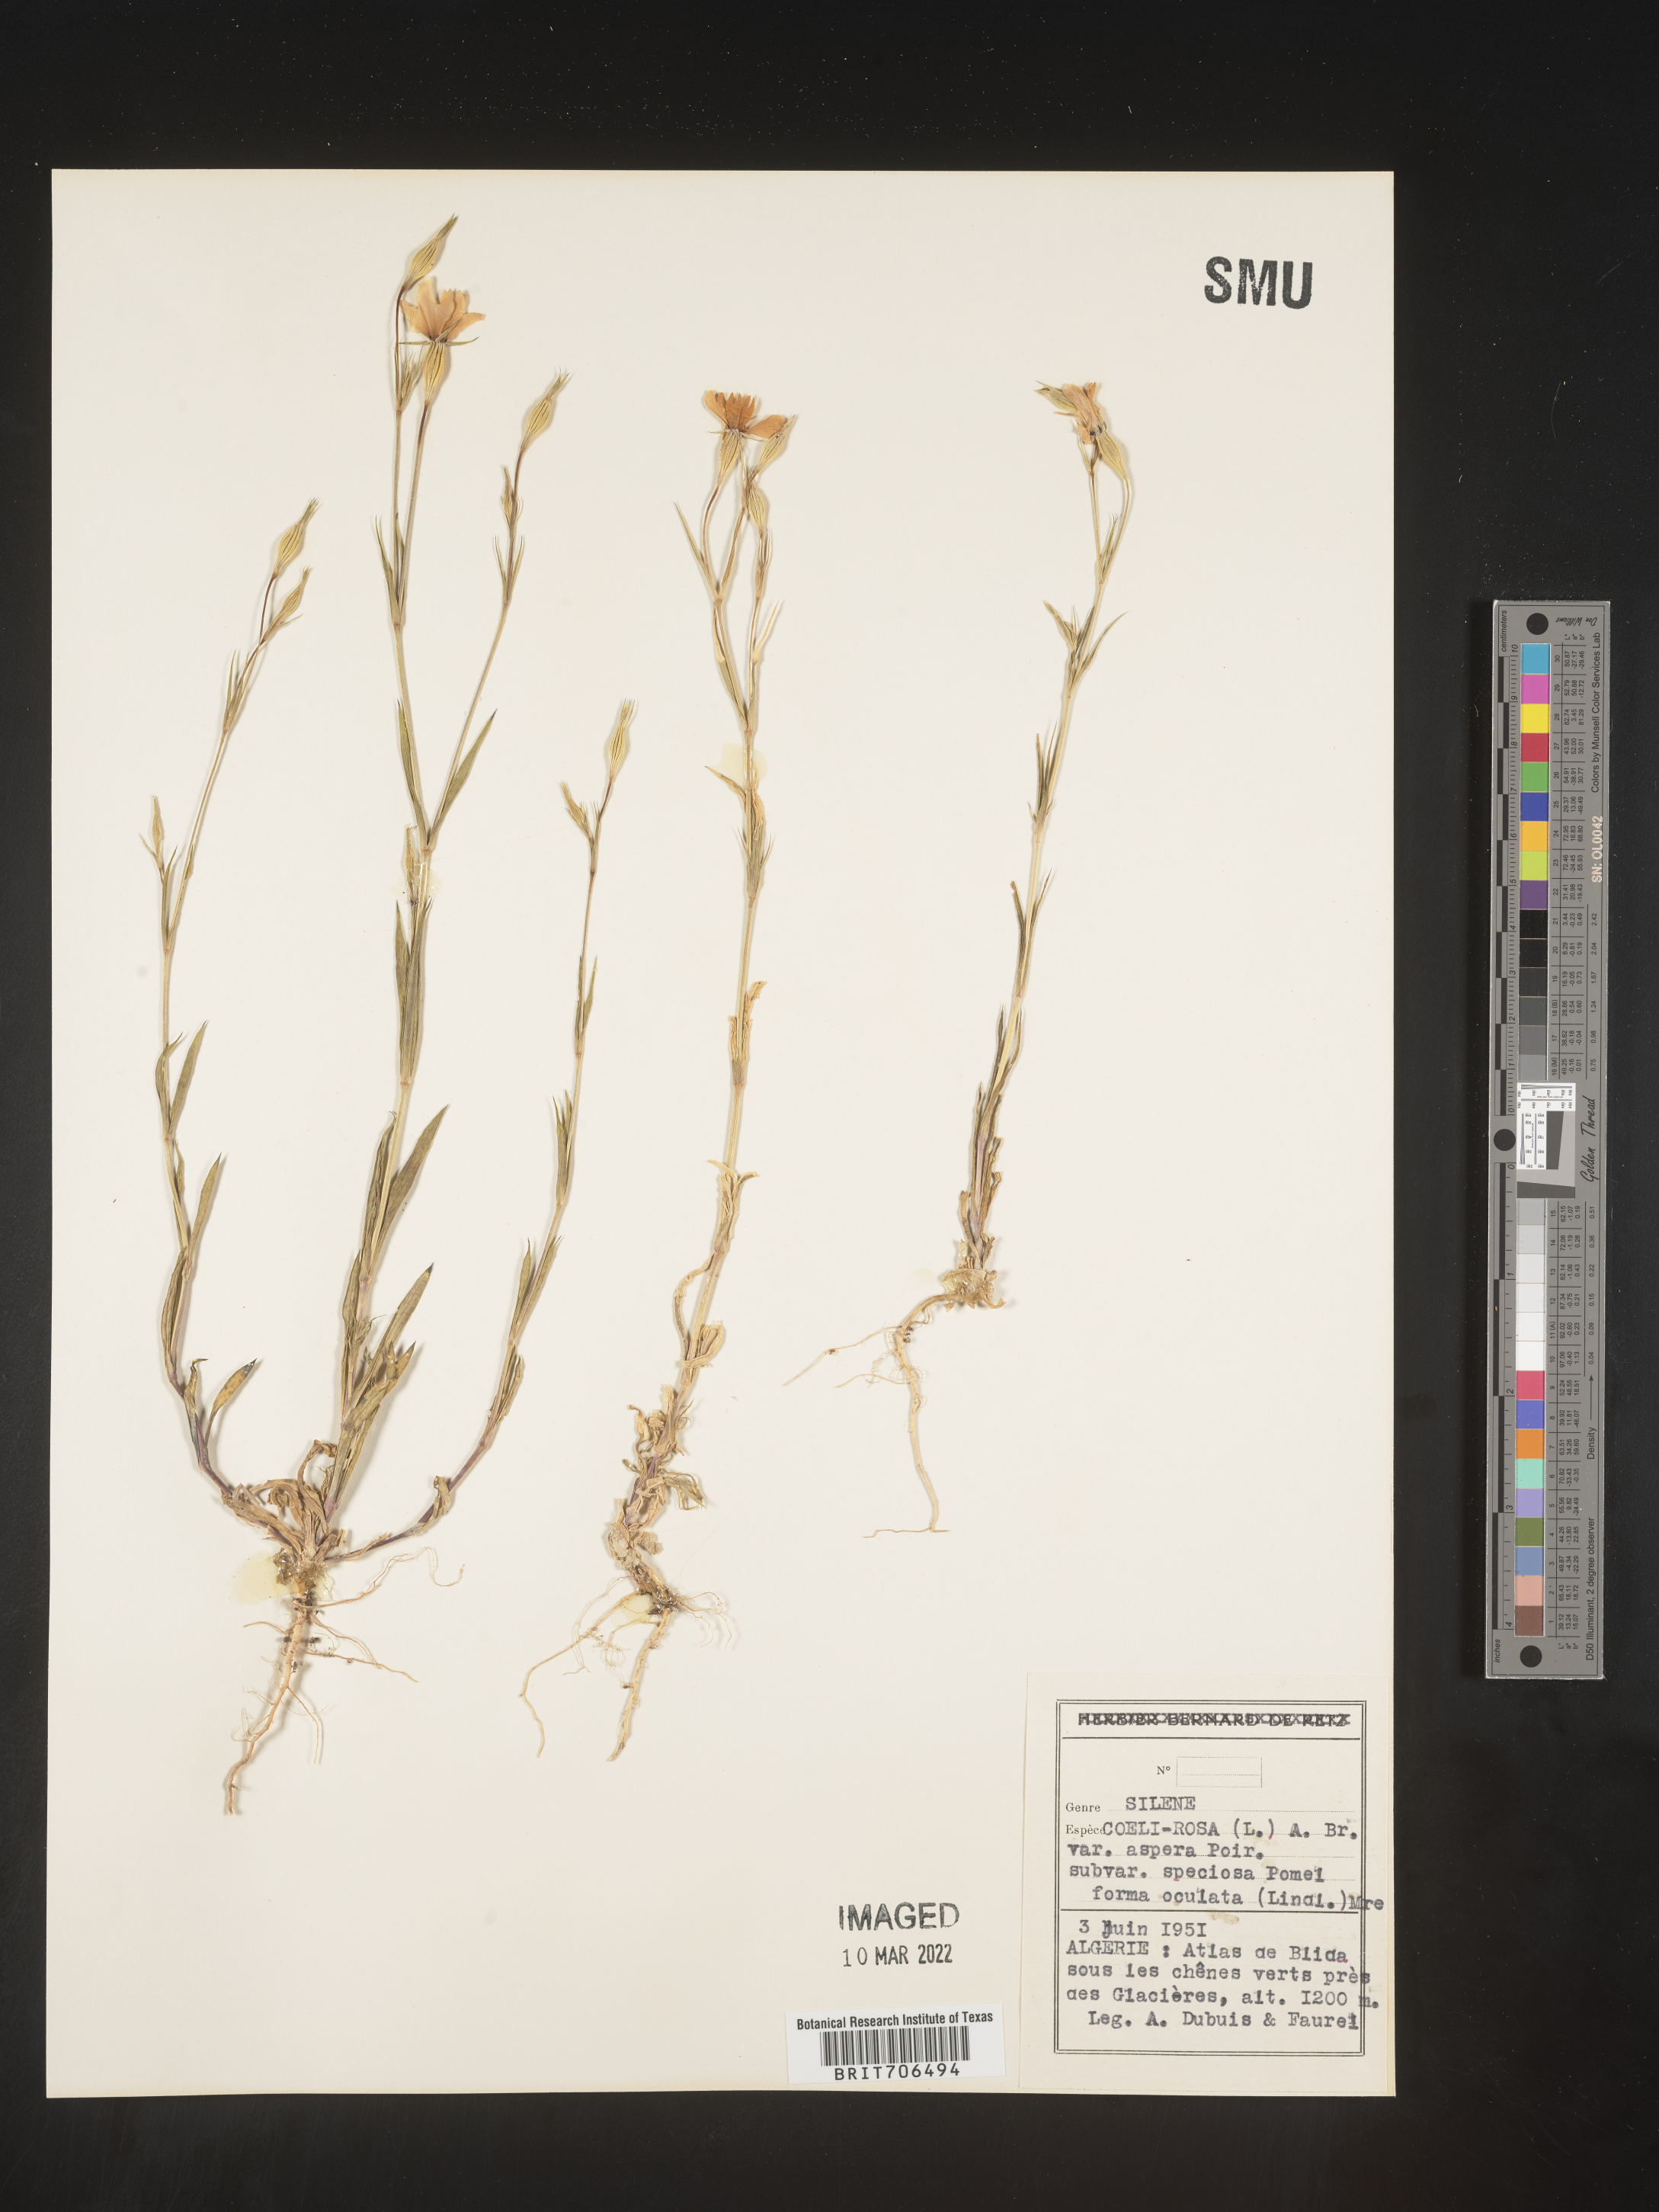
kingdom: Plantae
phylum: Tracheophyta
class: Magnoliopsida
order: Caryophyllales
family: Caryophyllaceae
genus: Silene
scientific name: Silene
